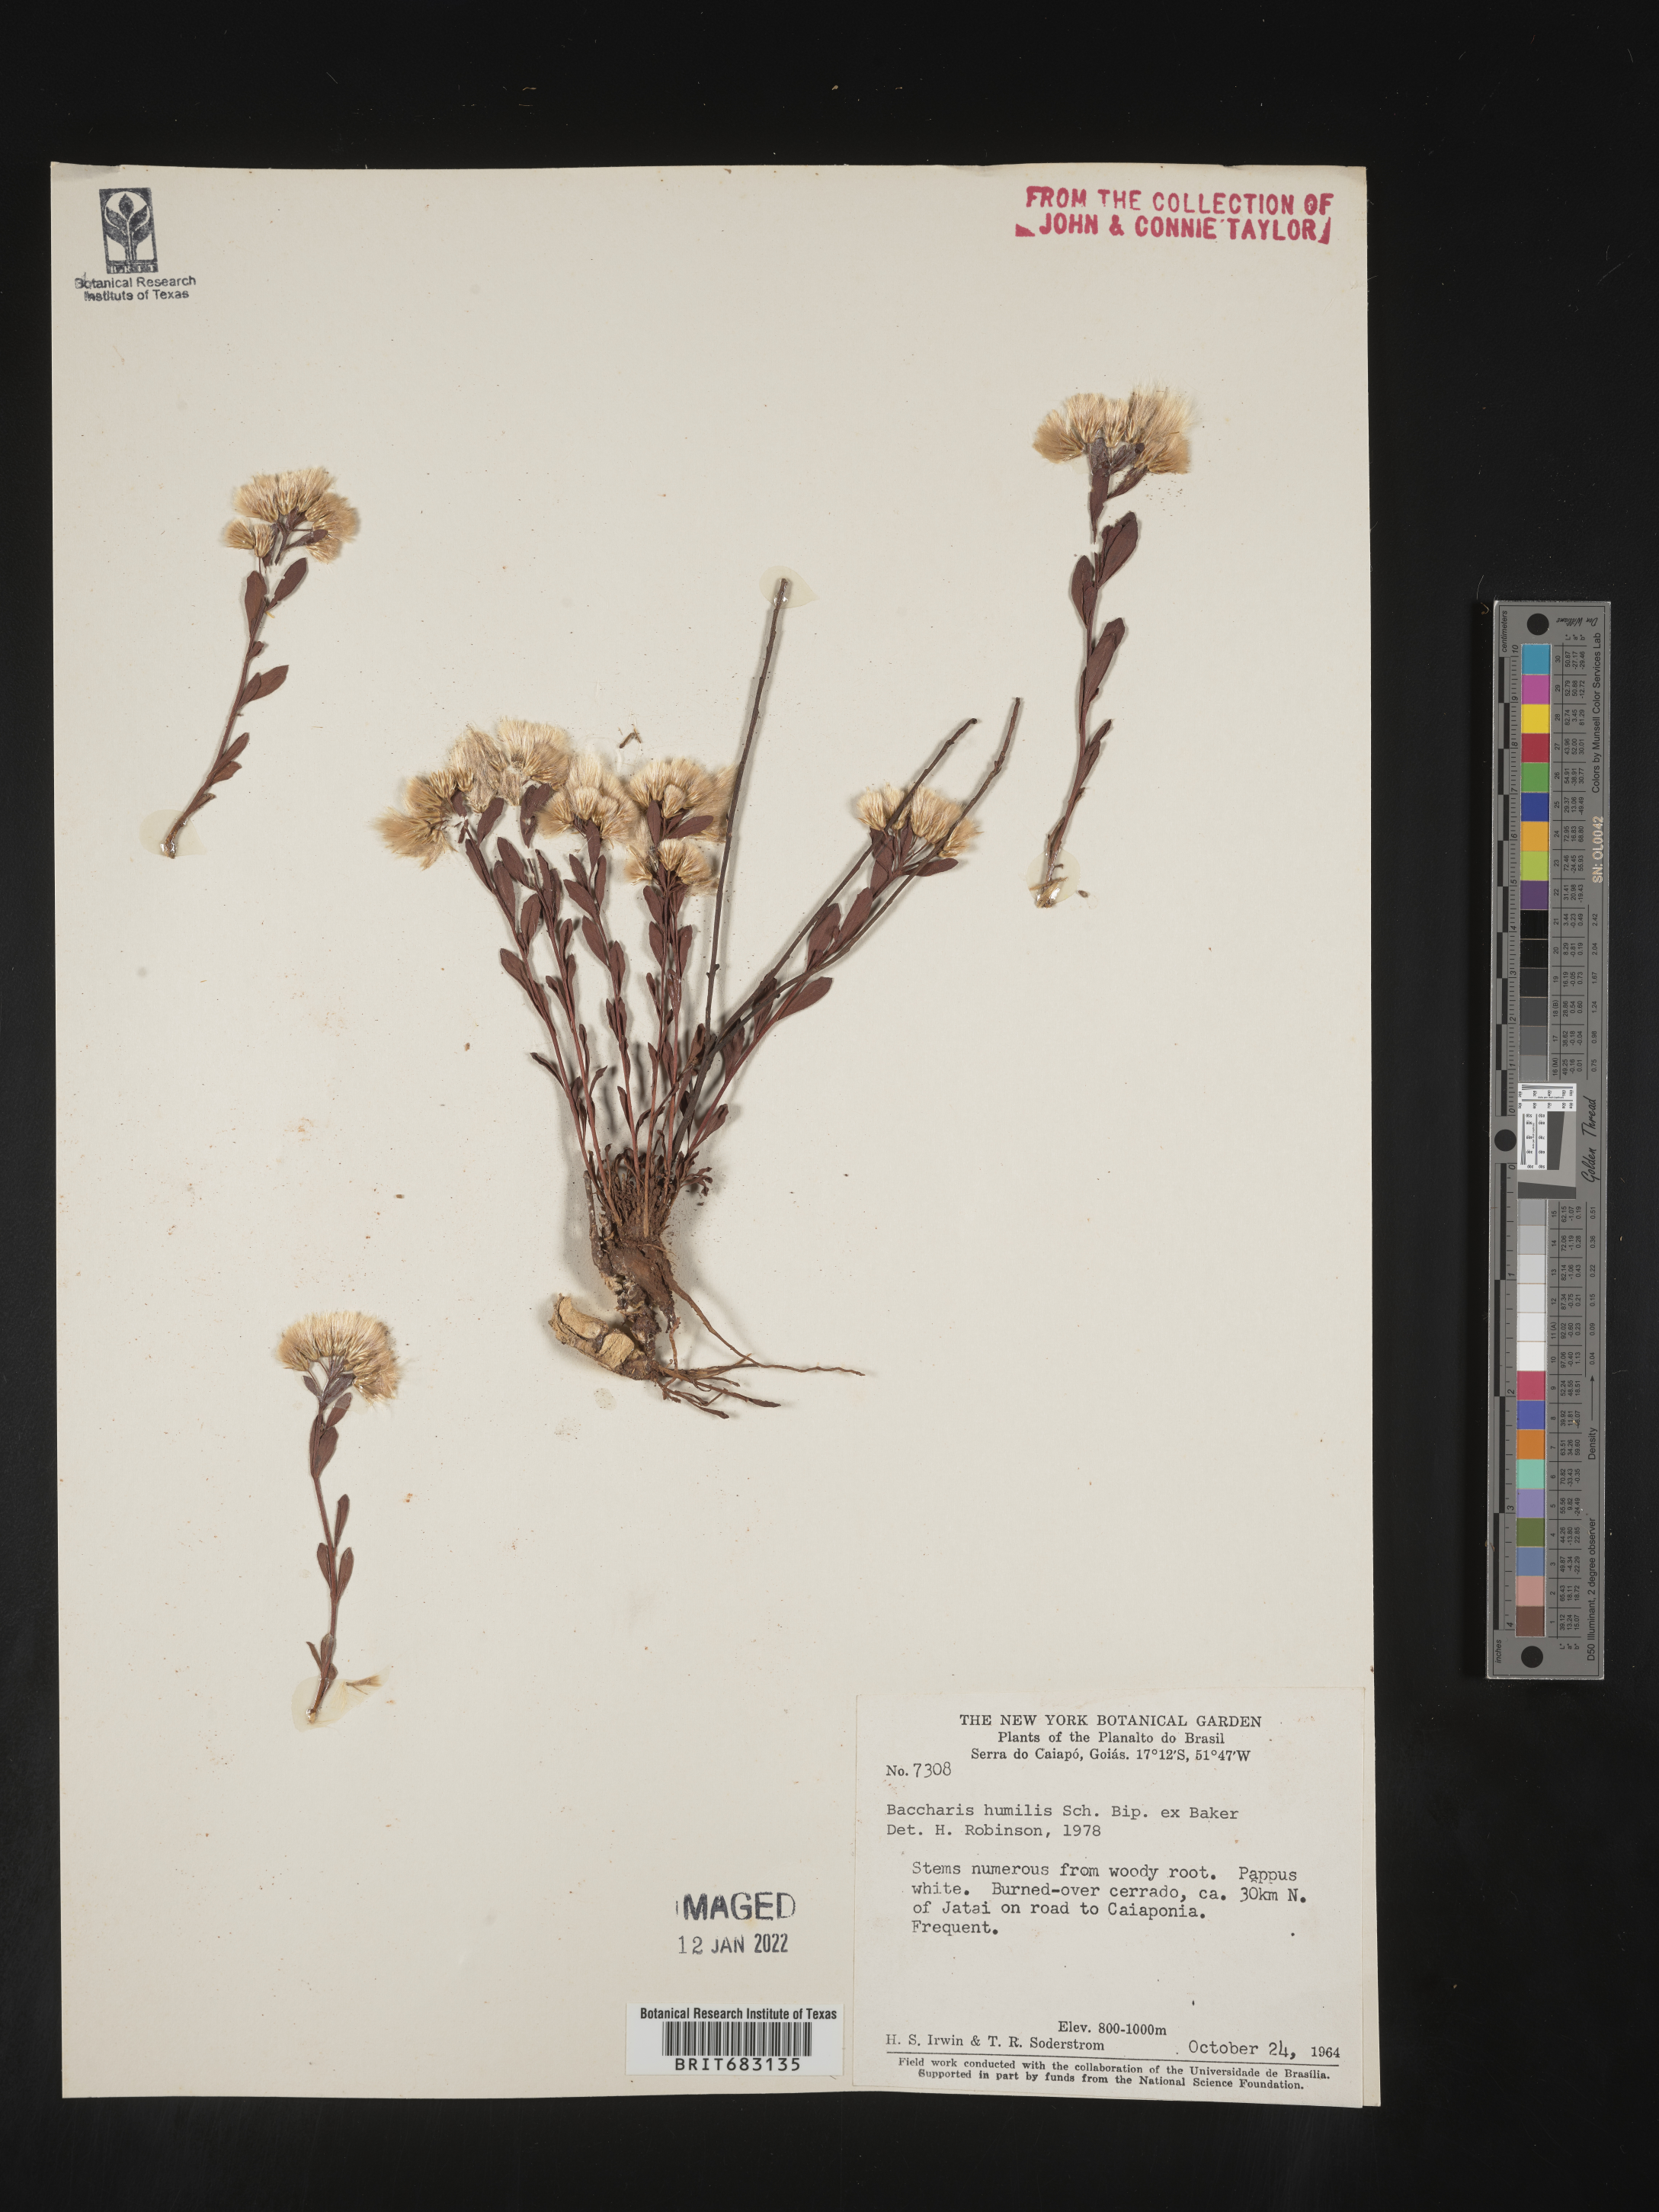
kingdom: Plantae
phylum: Tracheophyta
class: Magnoliopsida
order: Asterales
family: Asteraceae
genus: Baccharis
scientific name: Baccharis
